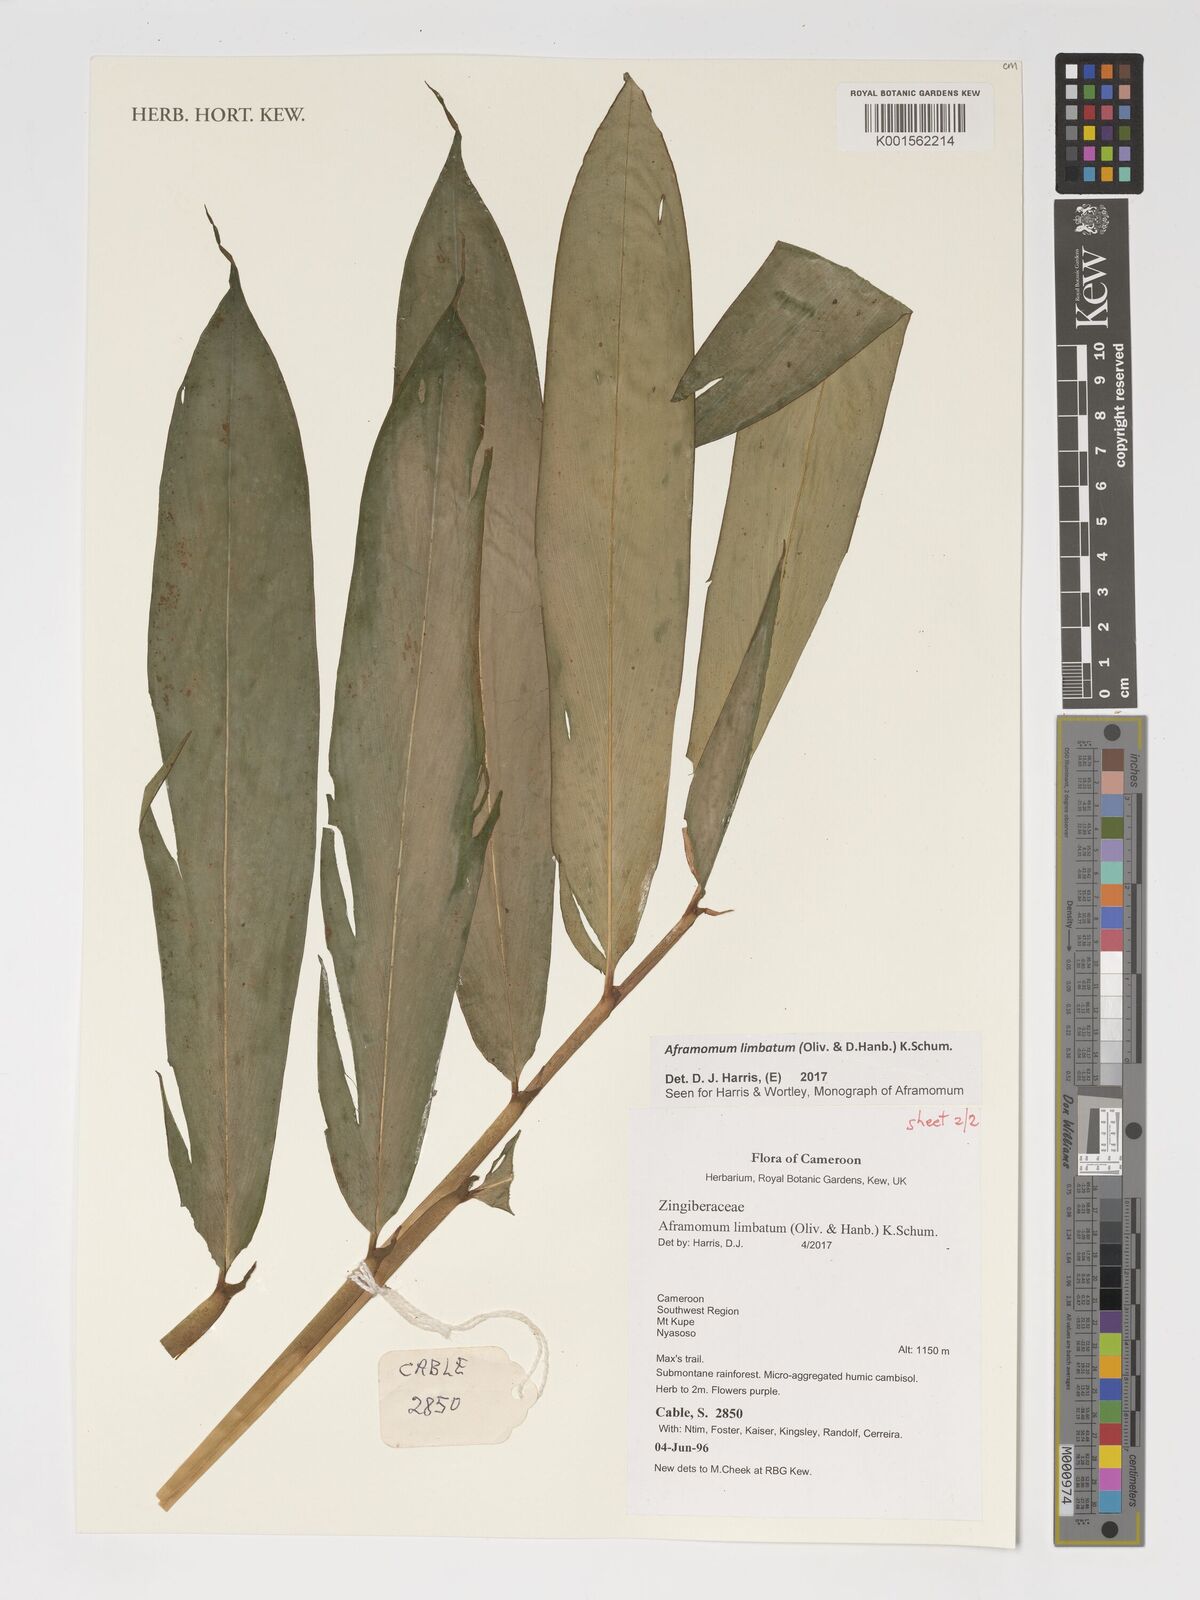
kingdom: Plantae
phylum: Tracheophyta
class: Liliopsida
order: Zingiberales
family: Zingiberaceae
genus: Aframomum
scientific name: Aframomum limbatum
